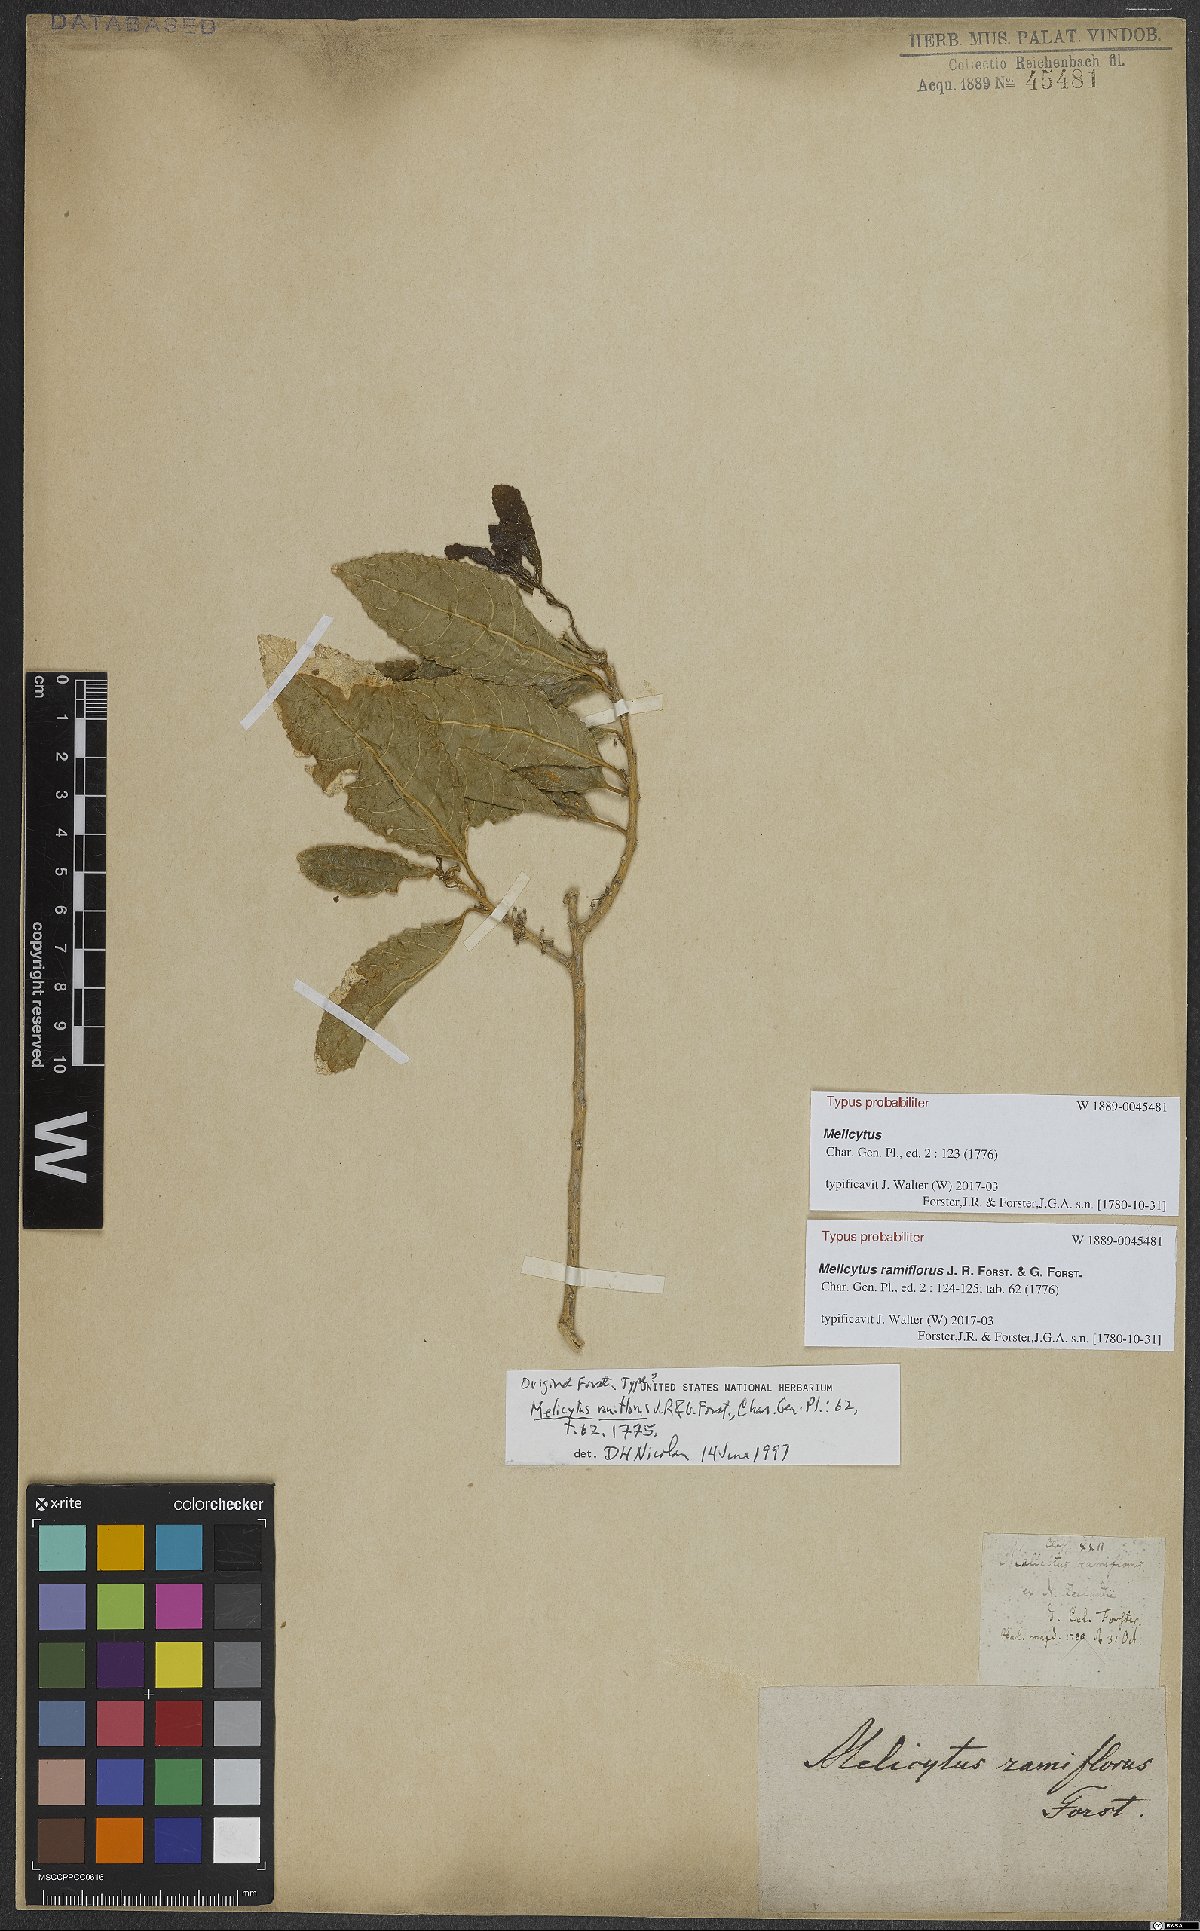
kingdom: Plantae
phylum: Tracheophyta
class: Magnoliopsida
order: Malpighiales
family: Violaceae
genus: Melicytus
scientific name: Melicytus ramiflorus
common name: Mahoe
